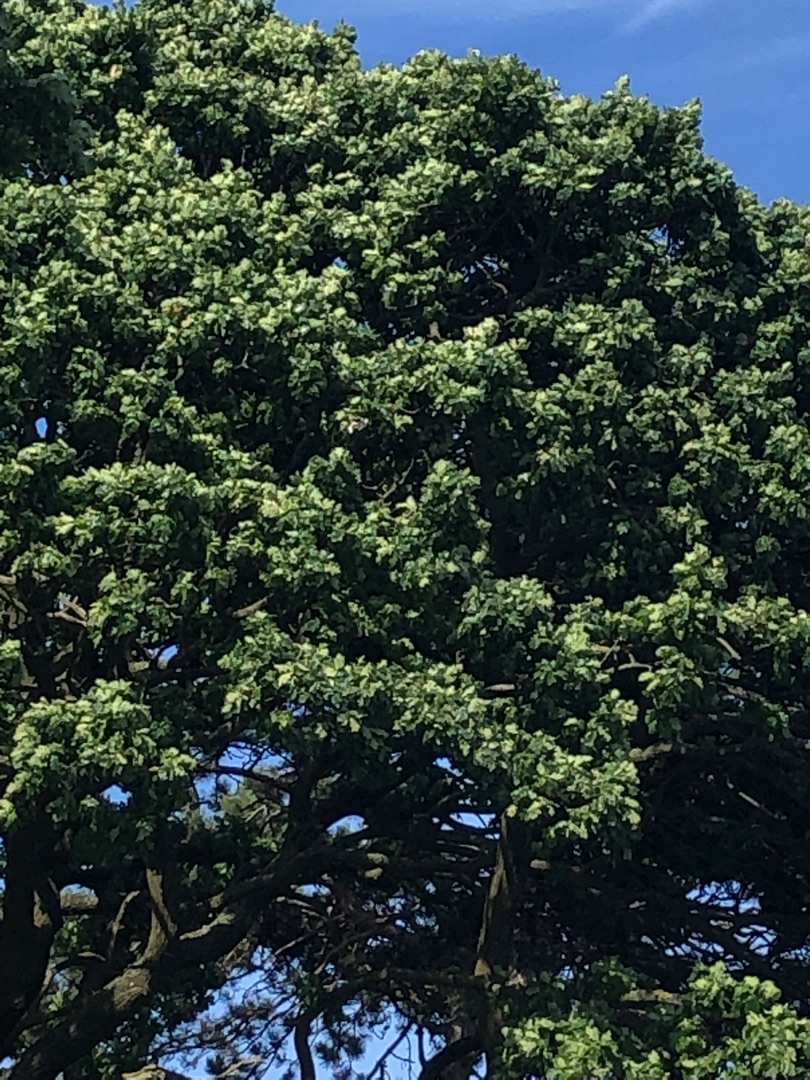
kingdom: Plantae
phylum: Tracheophyta
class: Magnoliopsida
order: Fagales
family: Fagaceae
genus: Quercus
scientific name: Quercus robur
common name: Stilk-eg/almindelig eg
